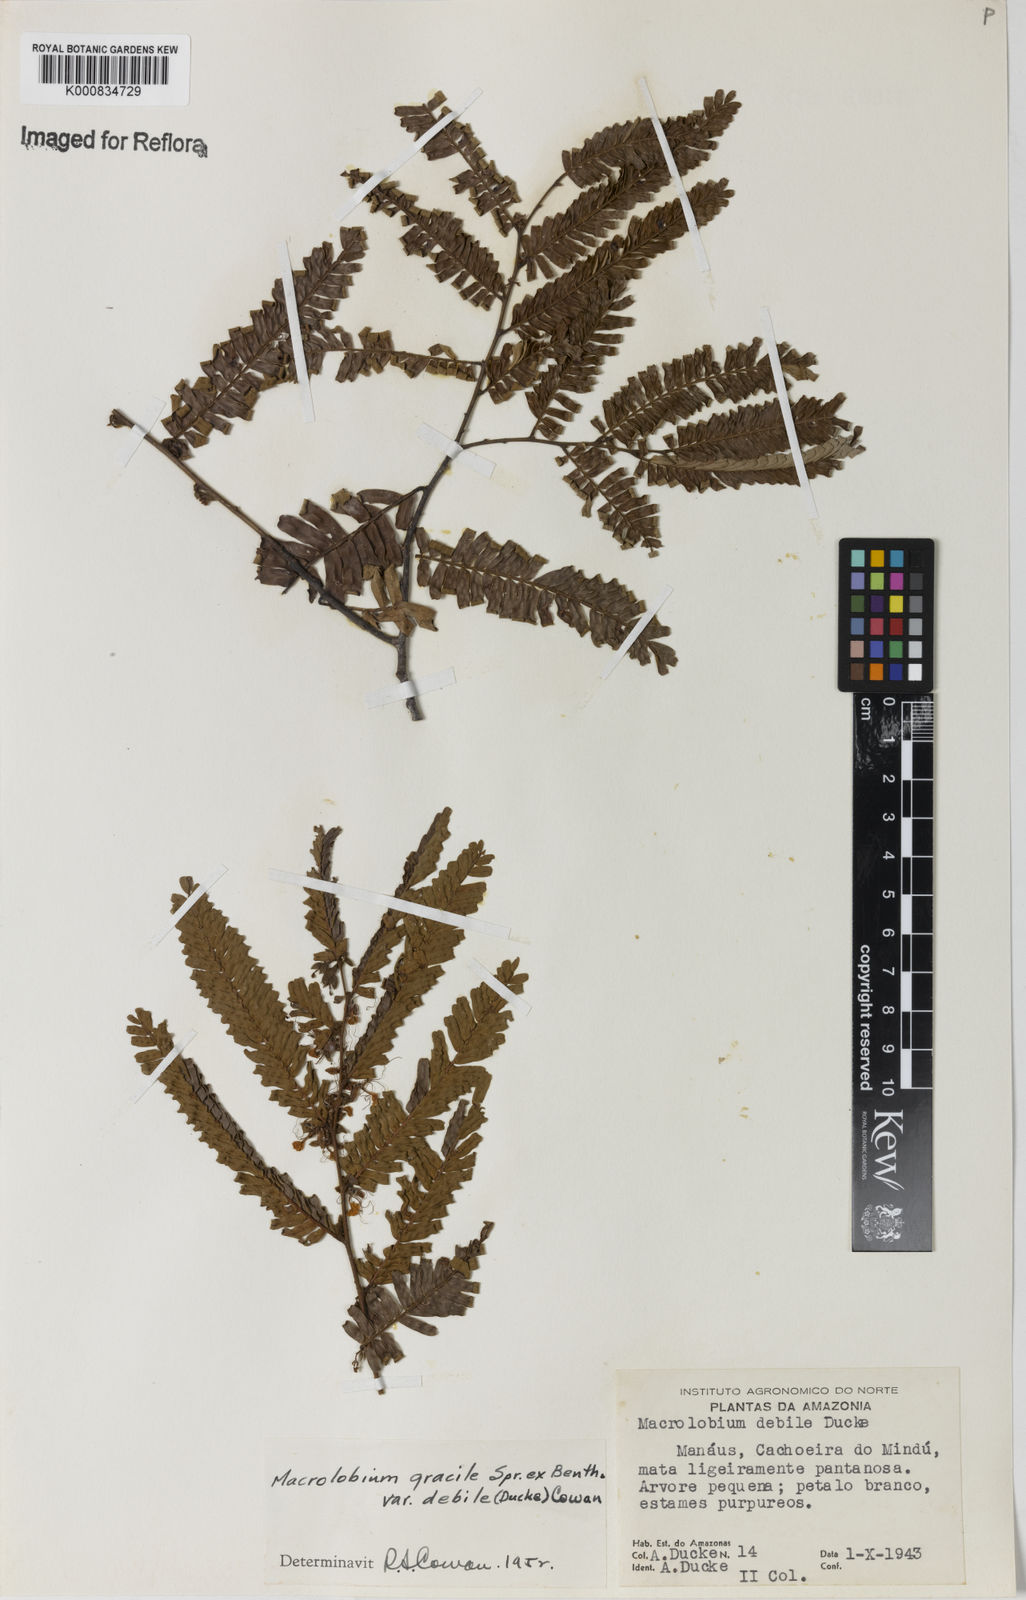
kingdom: Plantae
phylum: Tracheophyta
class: Magnoliopsida
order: Fabales
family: Fabaceae
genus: Macrolobium
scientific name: Macrolobium gracile
